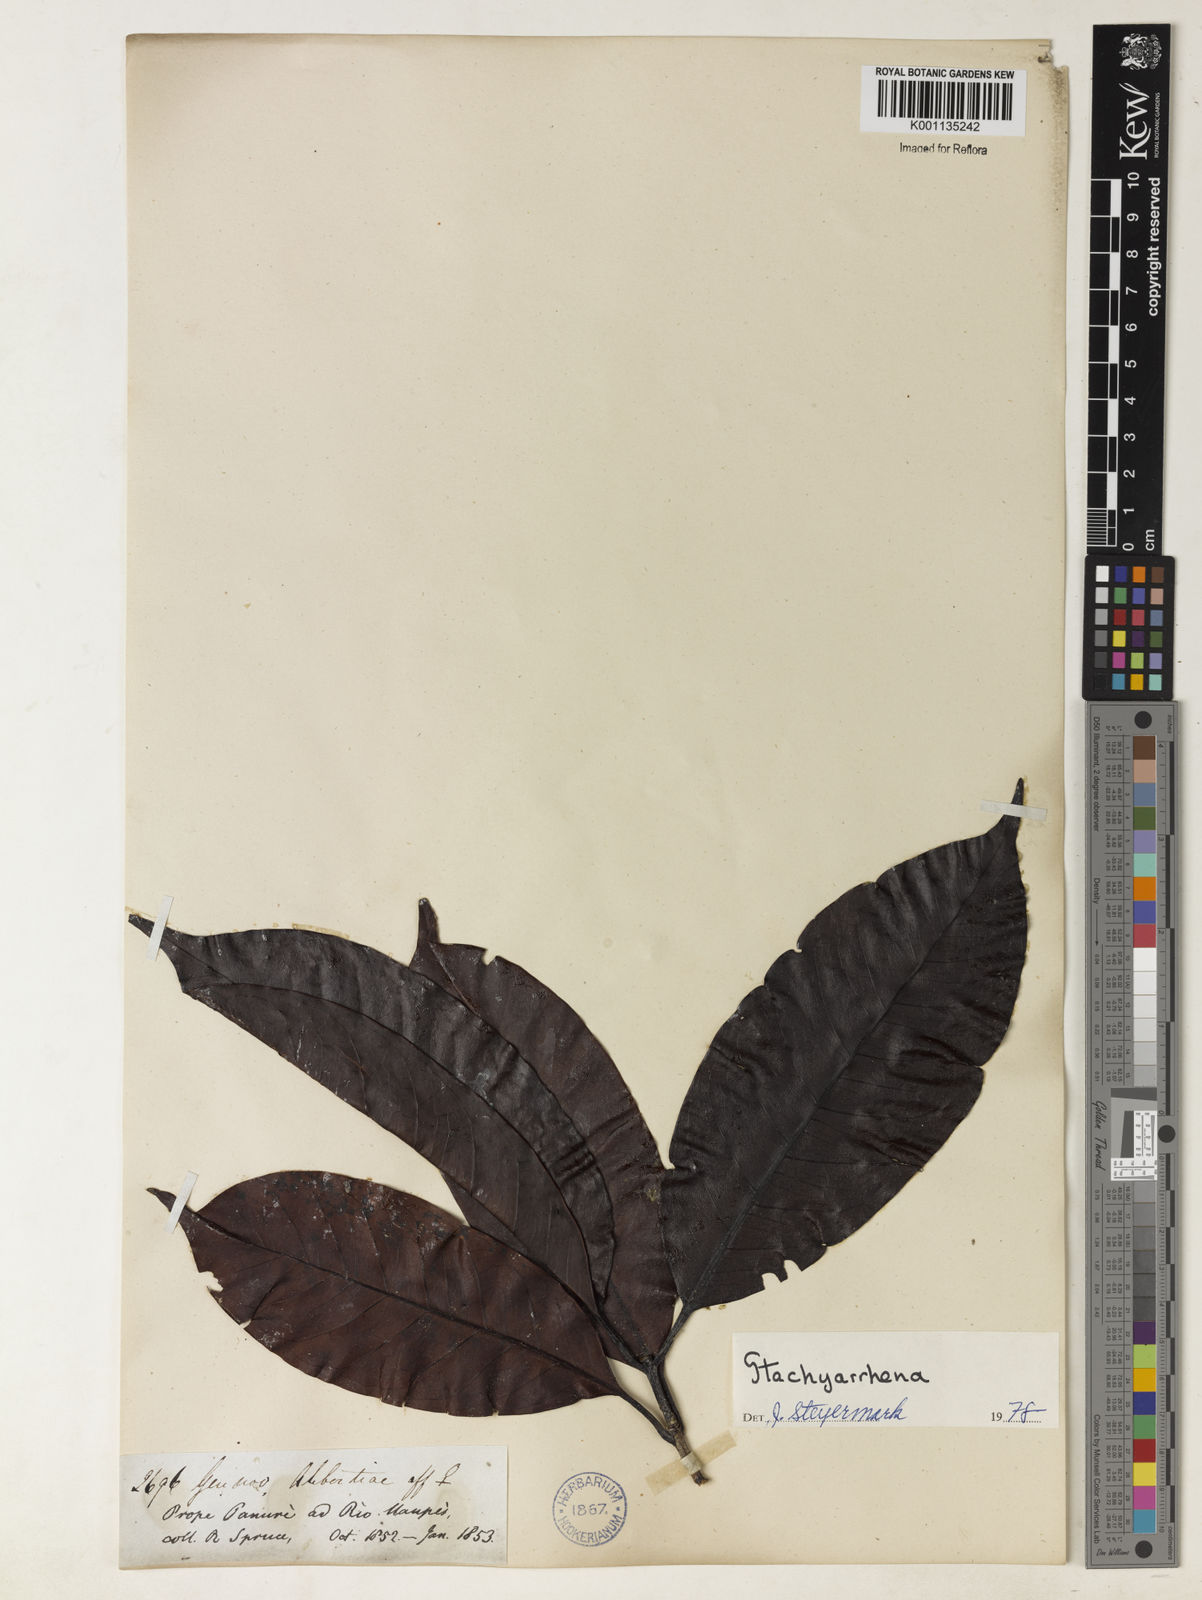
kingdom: Plantae
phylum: Tracheophyta
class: Magnoliopsida
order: Gentianales
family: Rubiaceae
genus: Stachyarrhena
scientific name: Stachyarrhena
